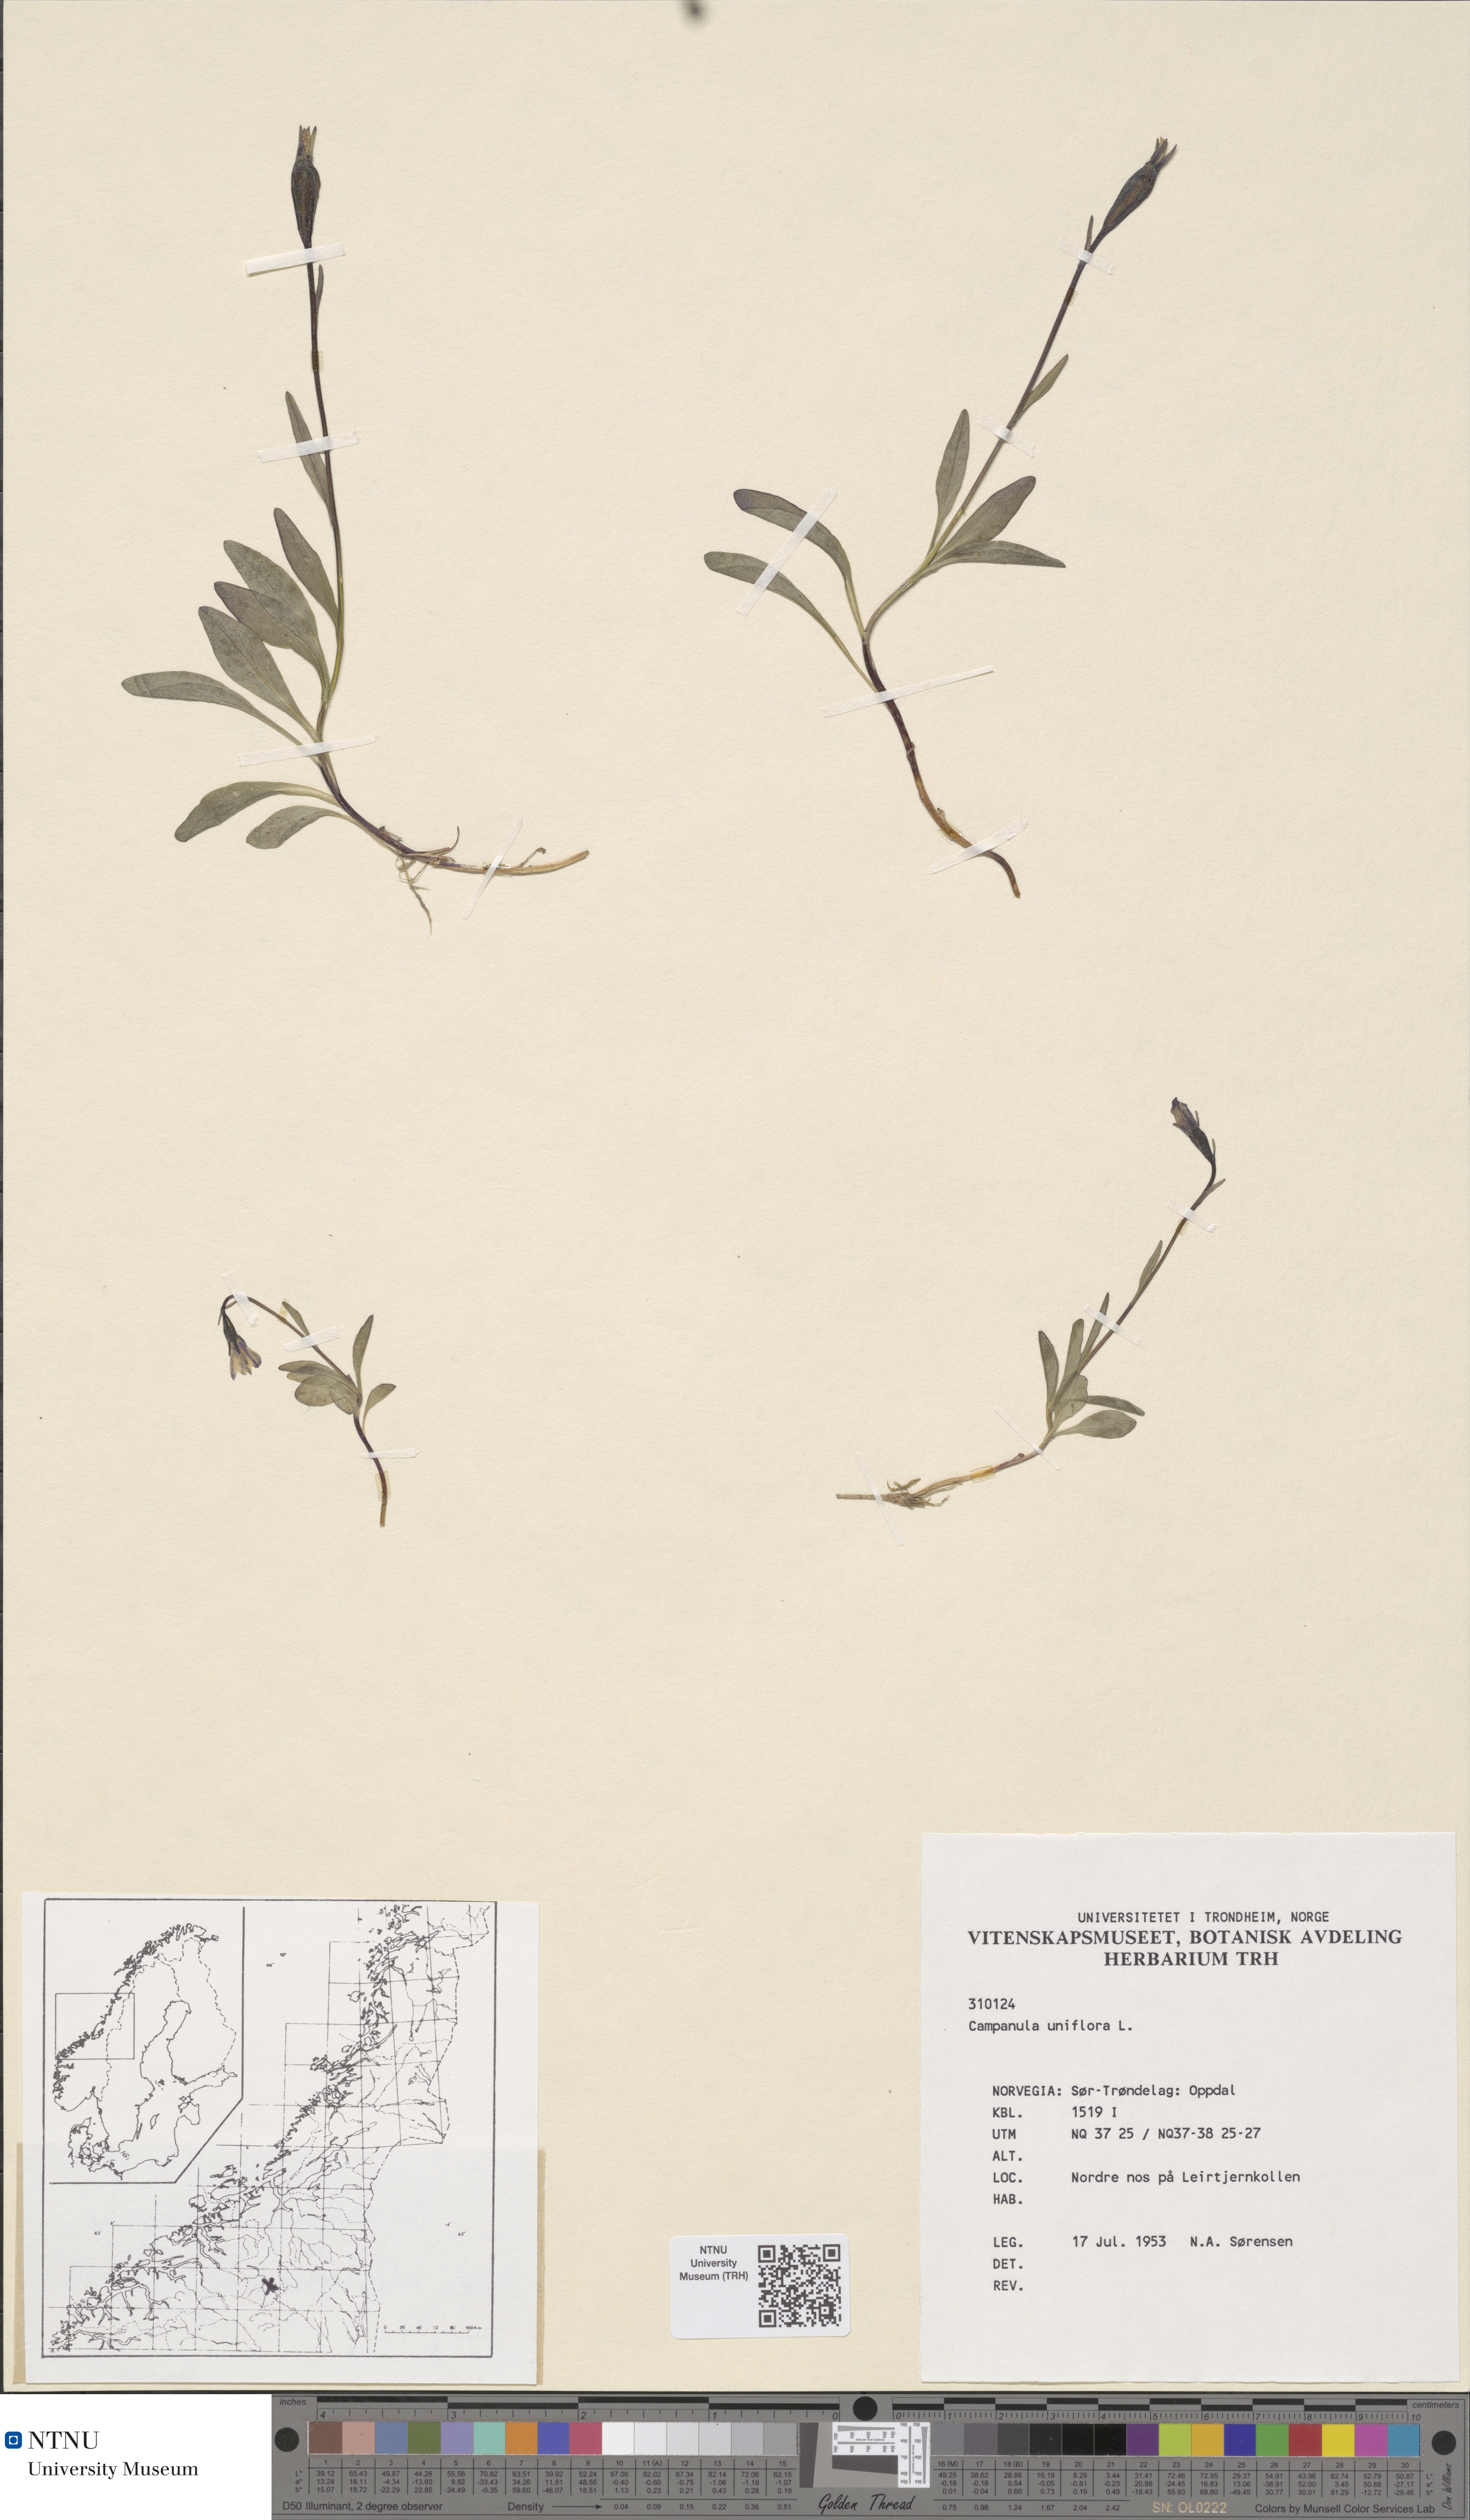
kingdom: Plantae
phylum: Tracheophyta
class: Magnoliopsida
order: Asterales
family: Campanulaceae
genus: Melanocalyx
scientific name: Melanocalyx uniflora
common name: Alpine harebell
